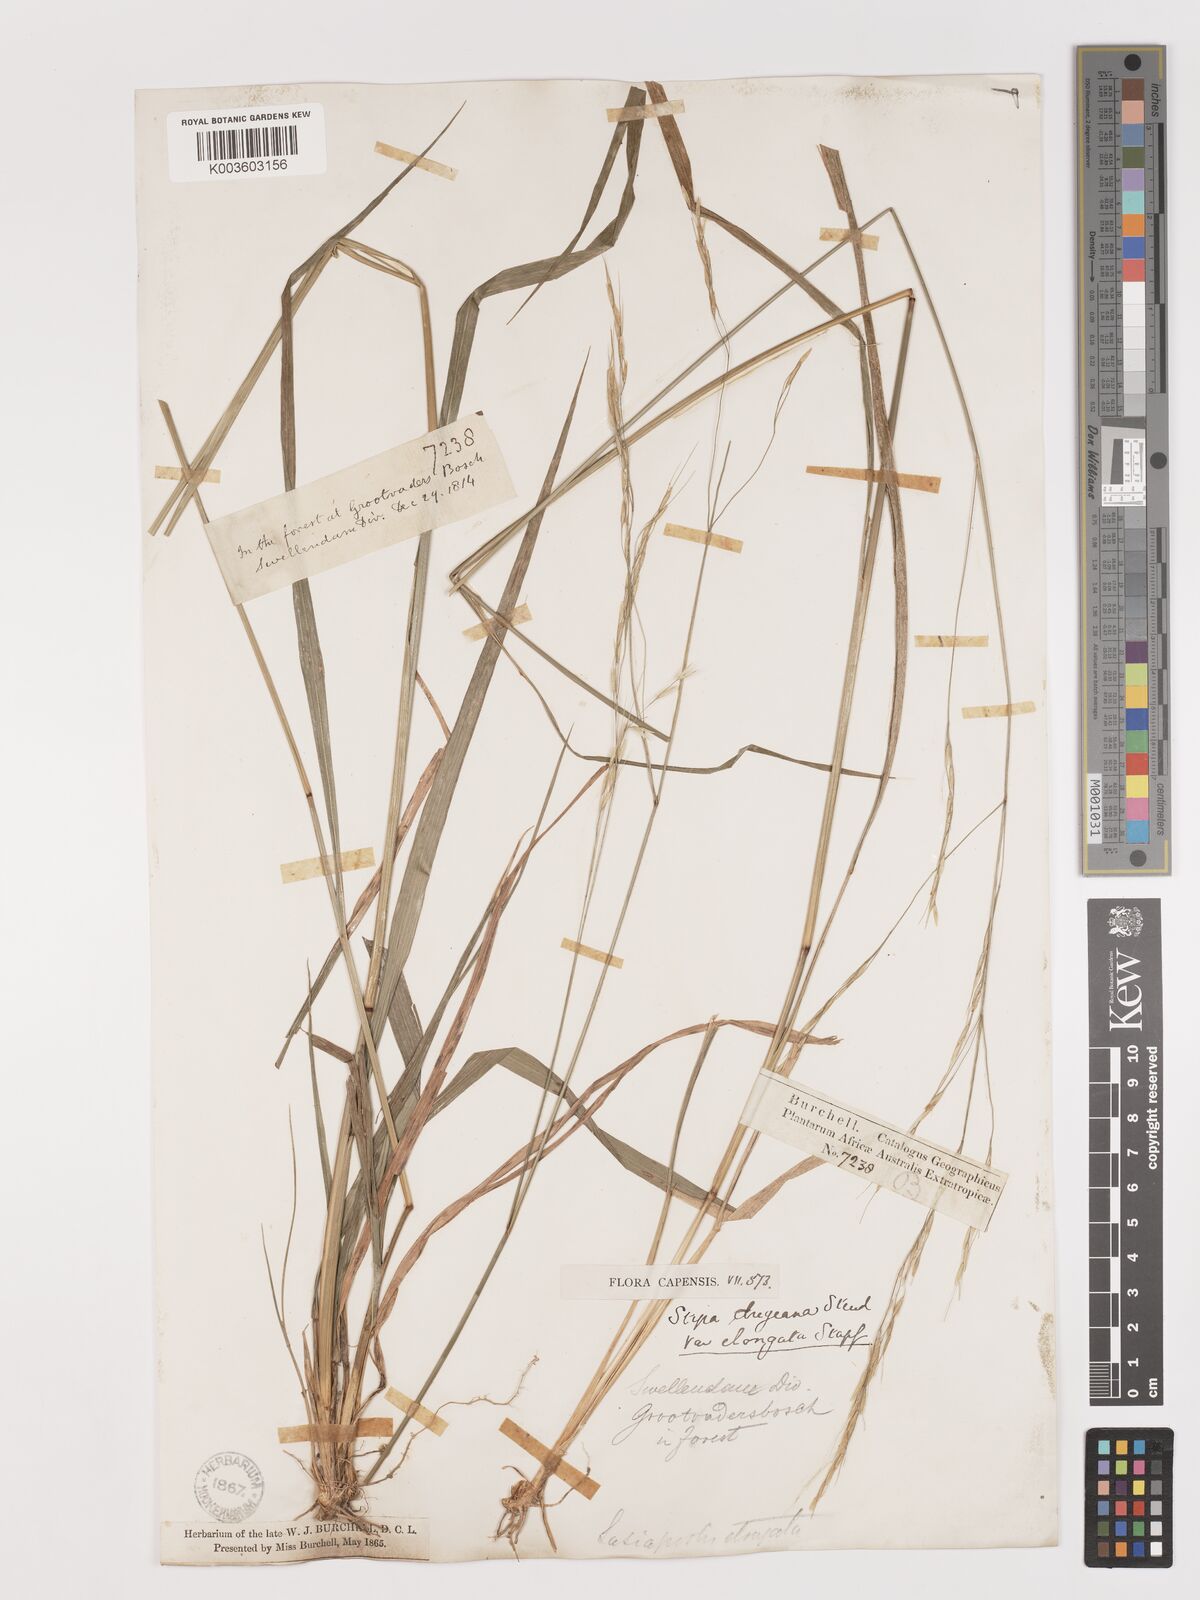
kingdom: Plantae
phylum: Tracheophyta
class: Liliopsida
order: Poales
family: Poaceae
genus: Stipa
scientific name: Stipa dregeana
